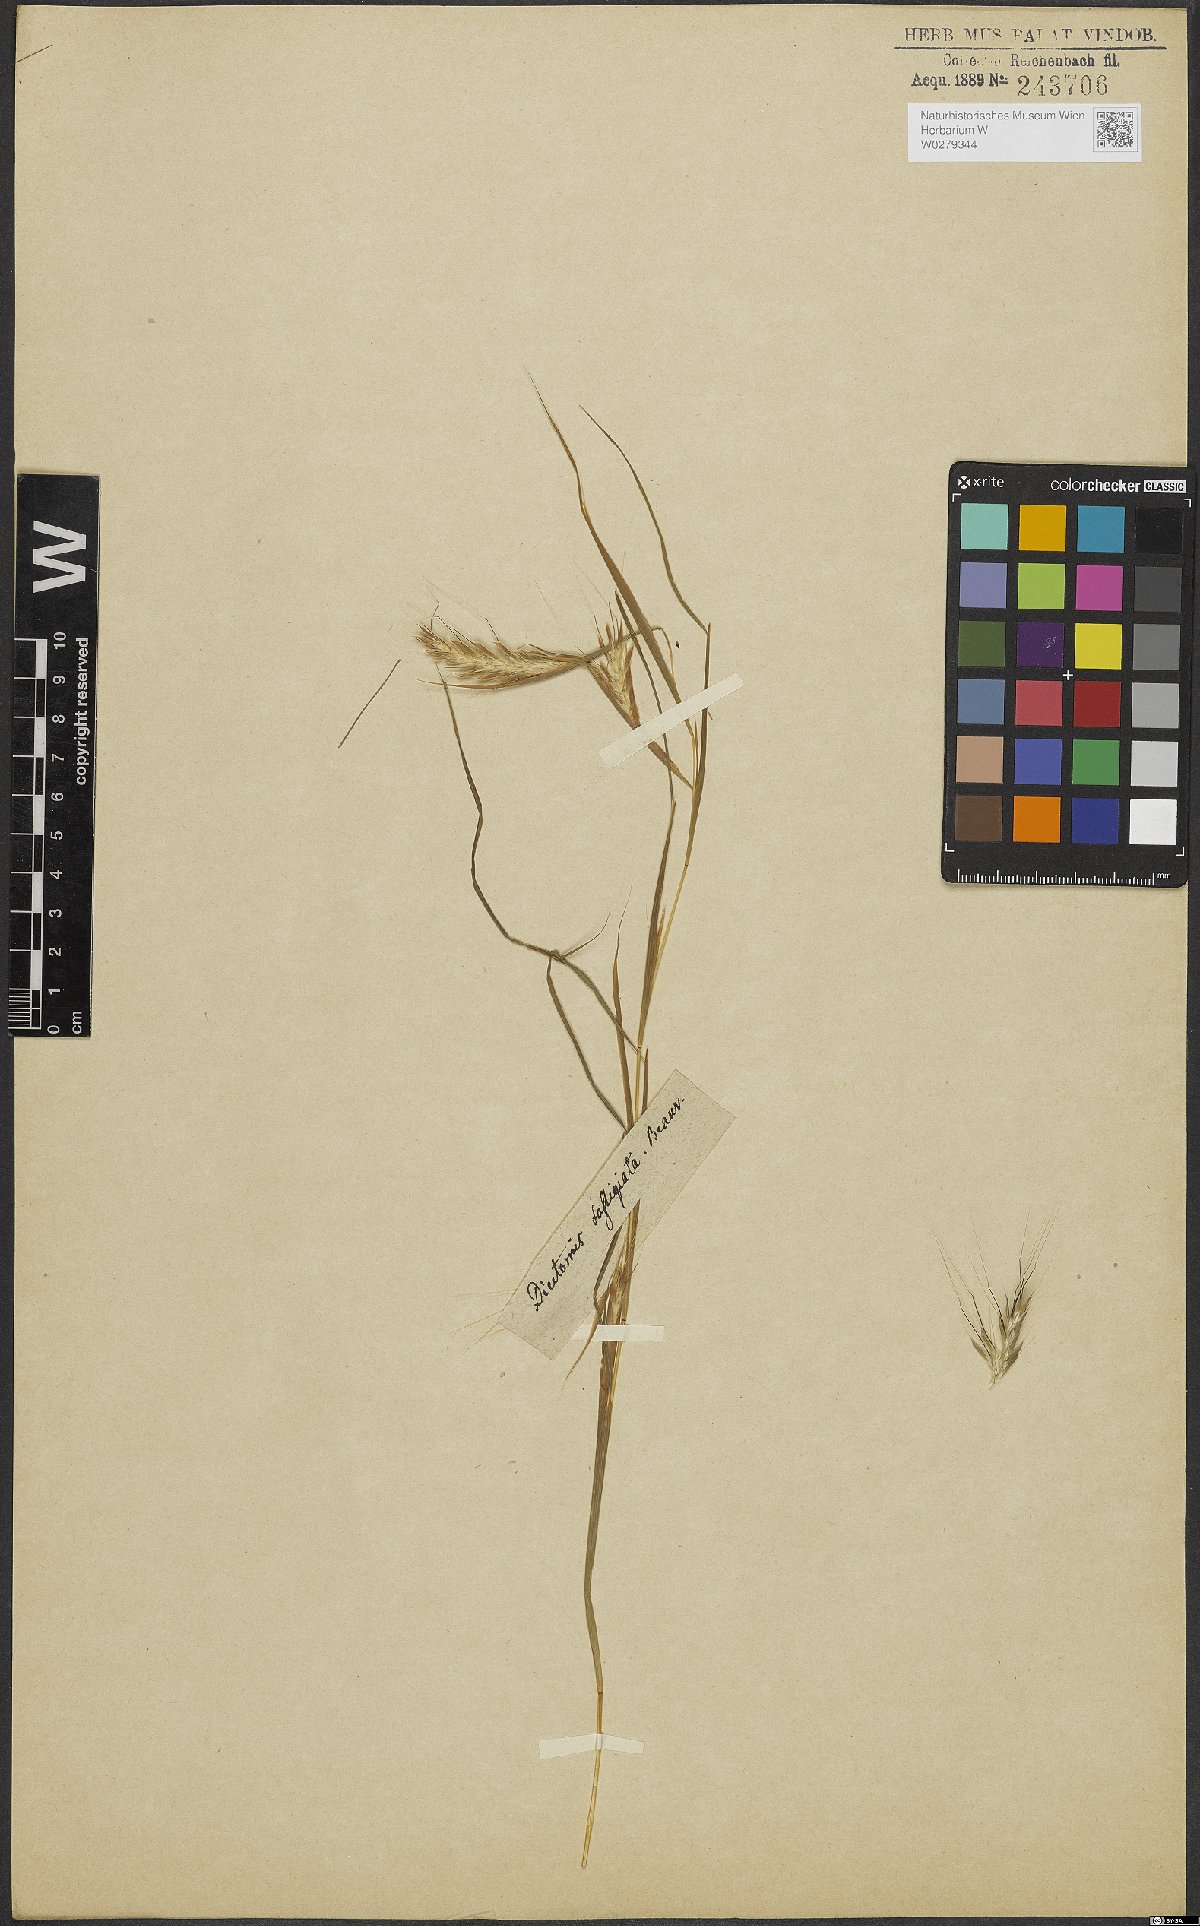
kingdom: Plantae
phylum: Tracheophyta
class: Liliopsida
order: Poales
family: Poaceae
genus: Diectomis
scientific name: Diectomis fastigiata
